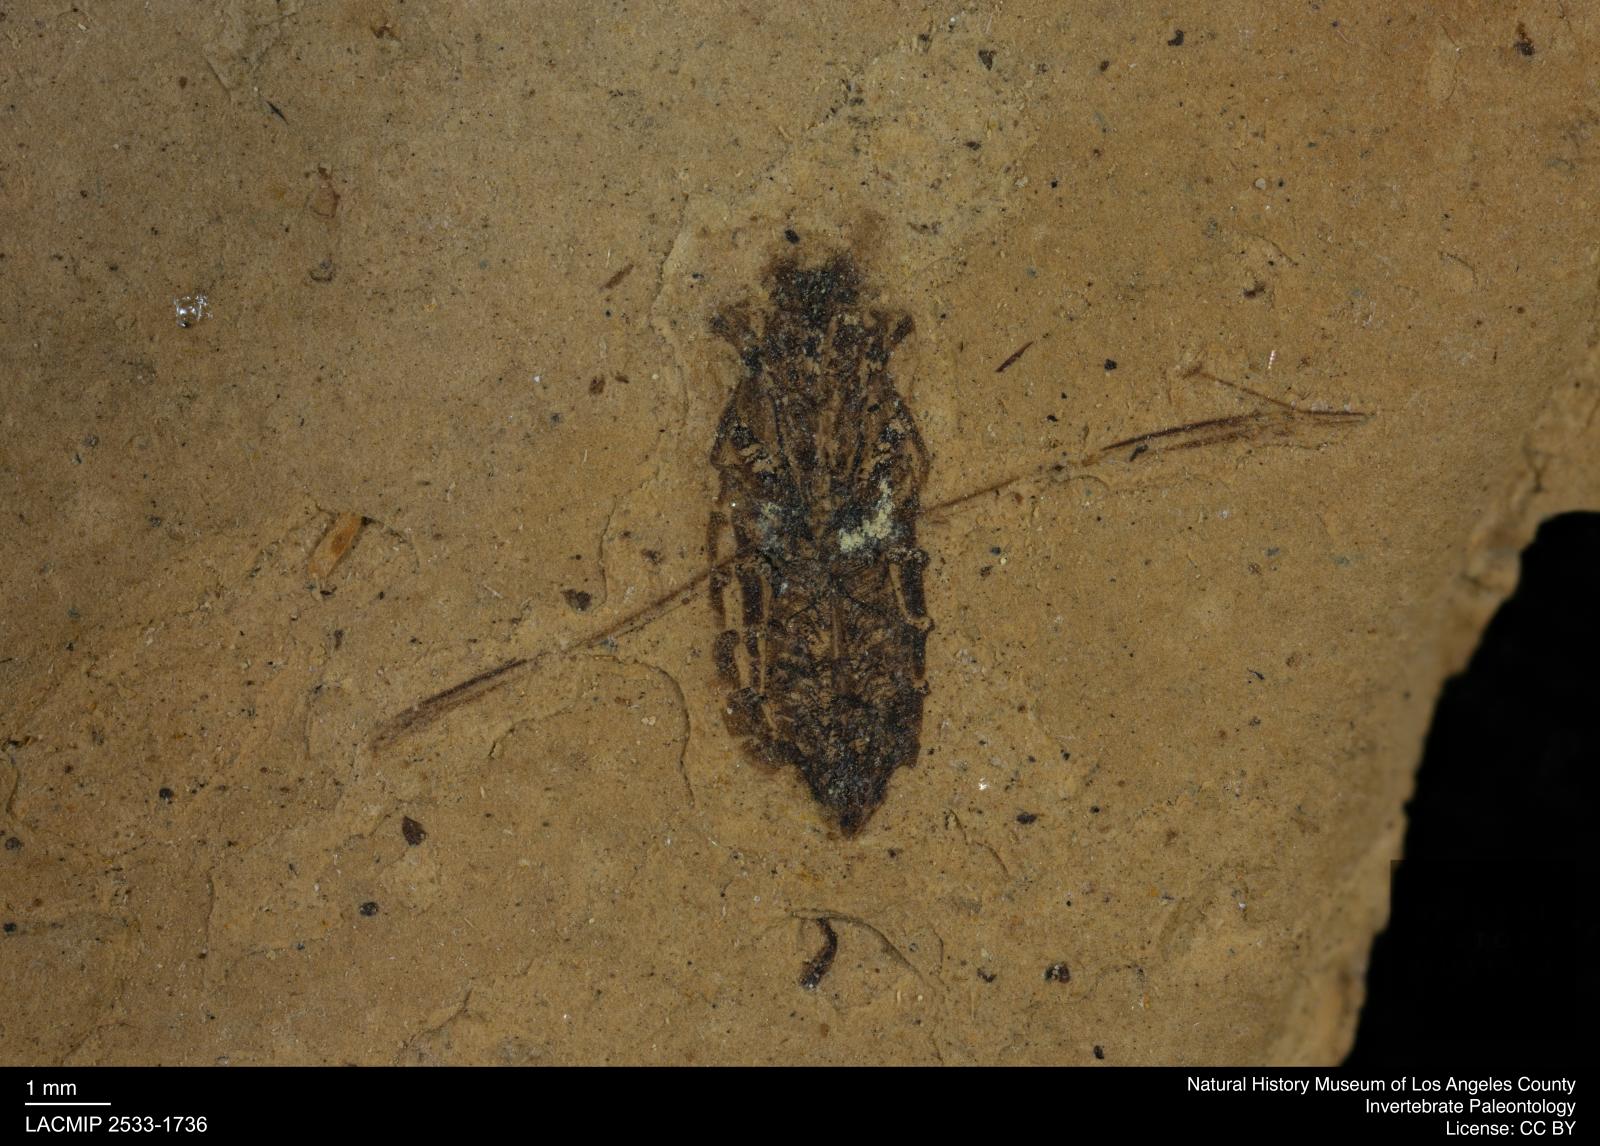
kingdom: Animalia
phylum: Arthropoda
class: Insecta
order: Hemiptera
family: Notonectidae
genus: Notonecta
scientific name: Notonecta
